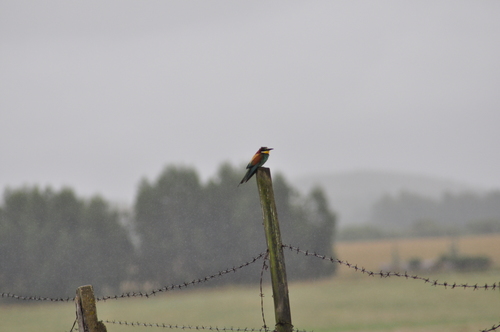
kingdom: Animalia
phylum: Chordata
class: Aves
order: Coraciiformes
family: Meropidae
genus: Merops
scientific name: Merops apiaster
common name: European bee-eater
